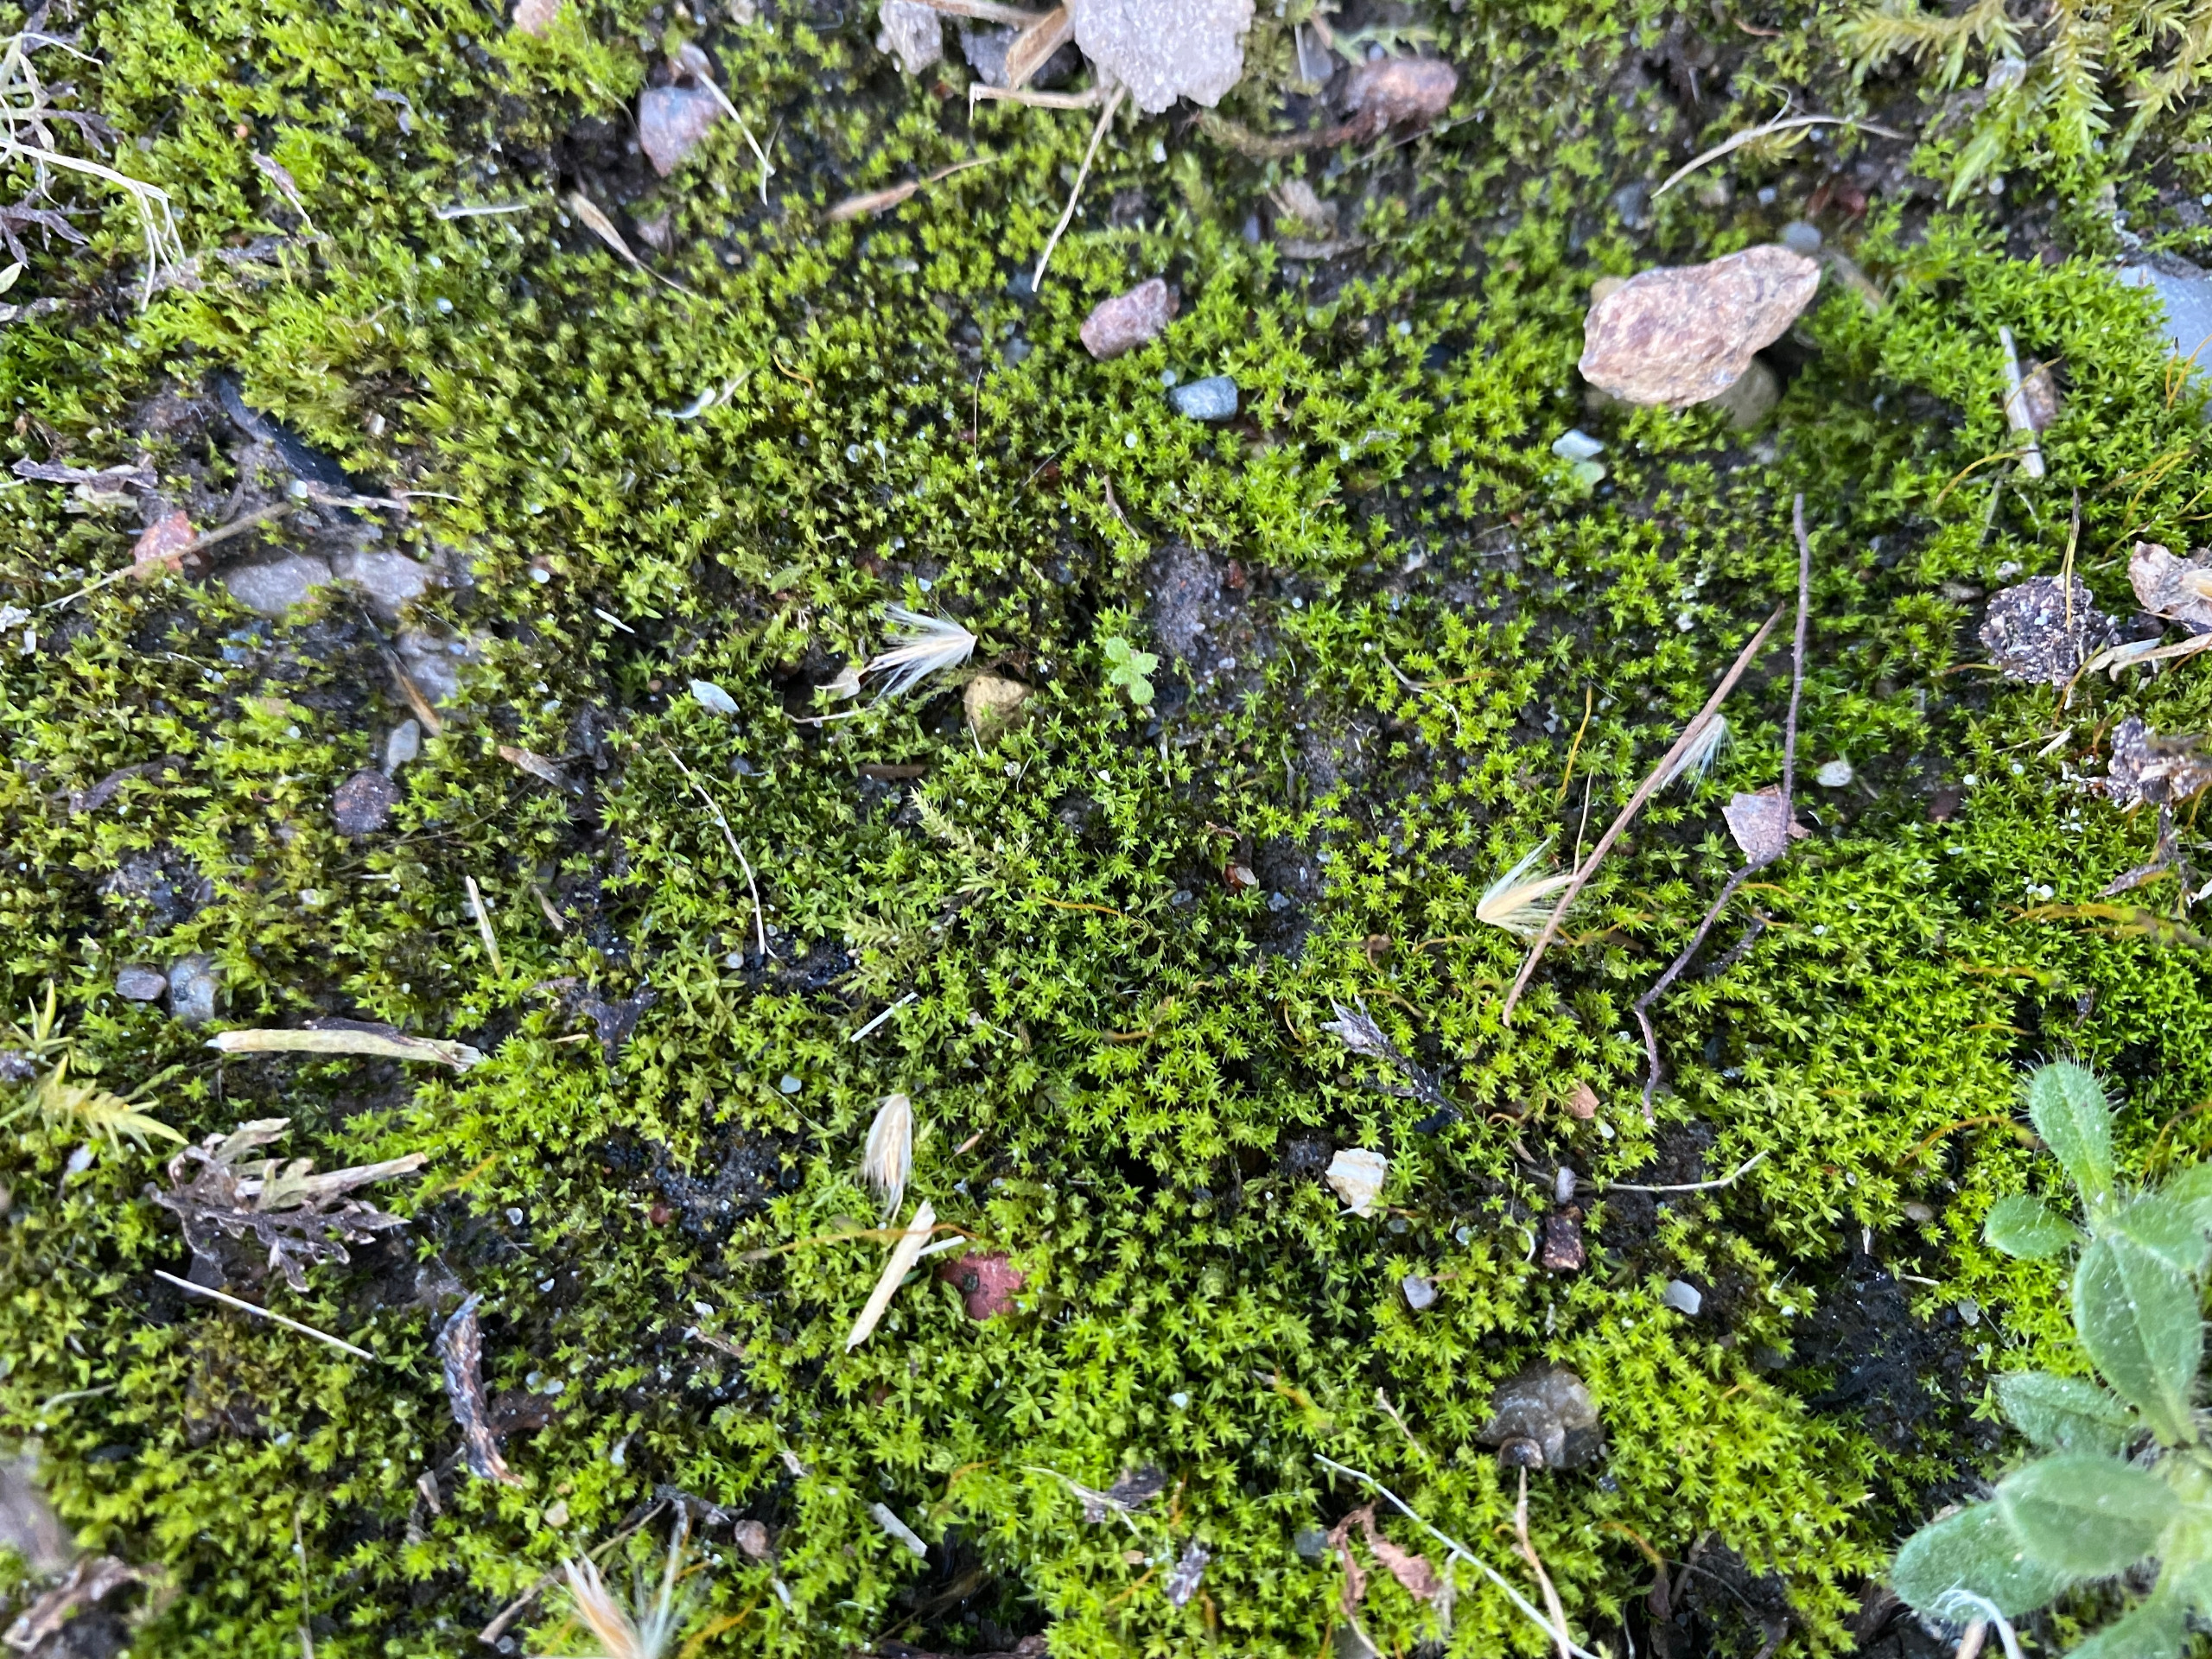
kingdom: Plantae
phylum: Bryophyta
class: Bryopsida
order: Pottiales
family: Pottiaceae
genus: Pseudocrossidium
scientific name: Pseudocrossidium hornschuchianum
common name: Spids rullerand
